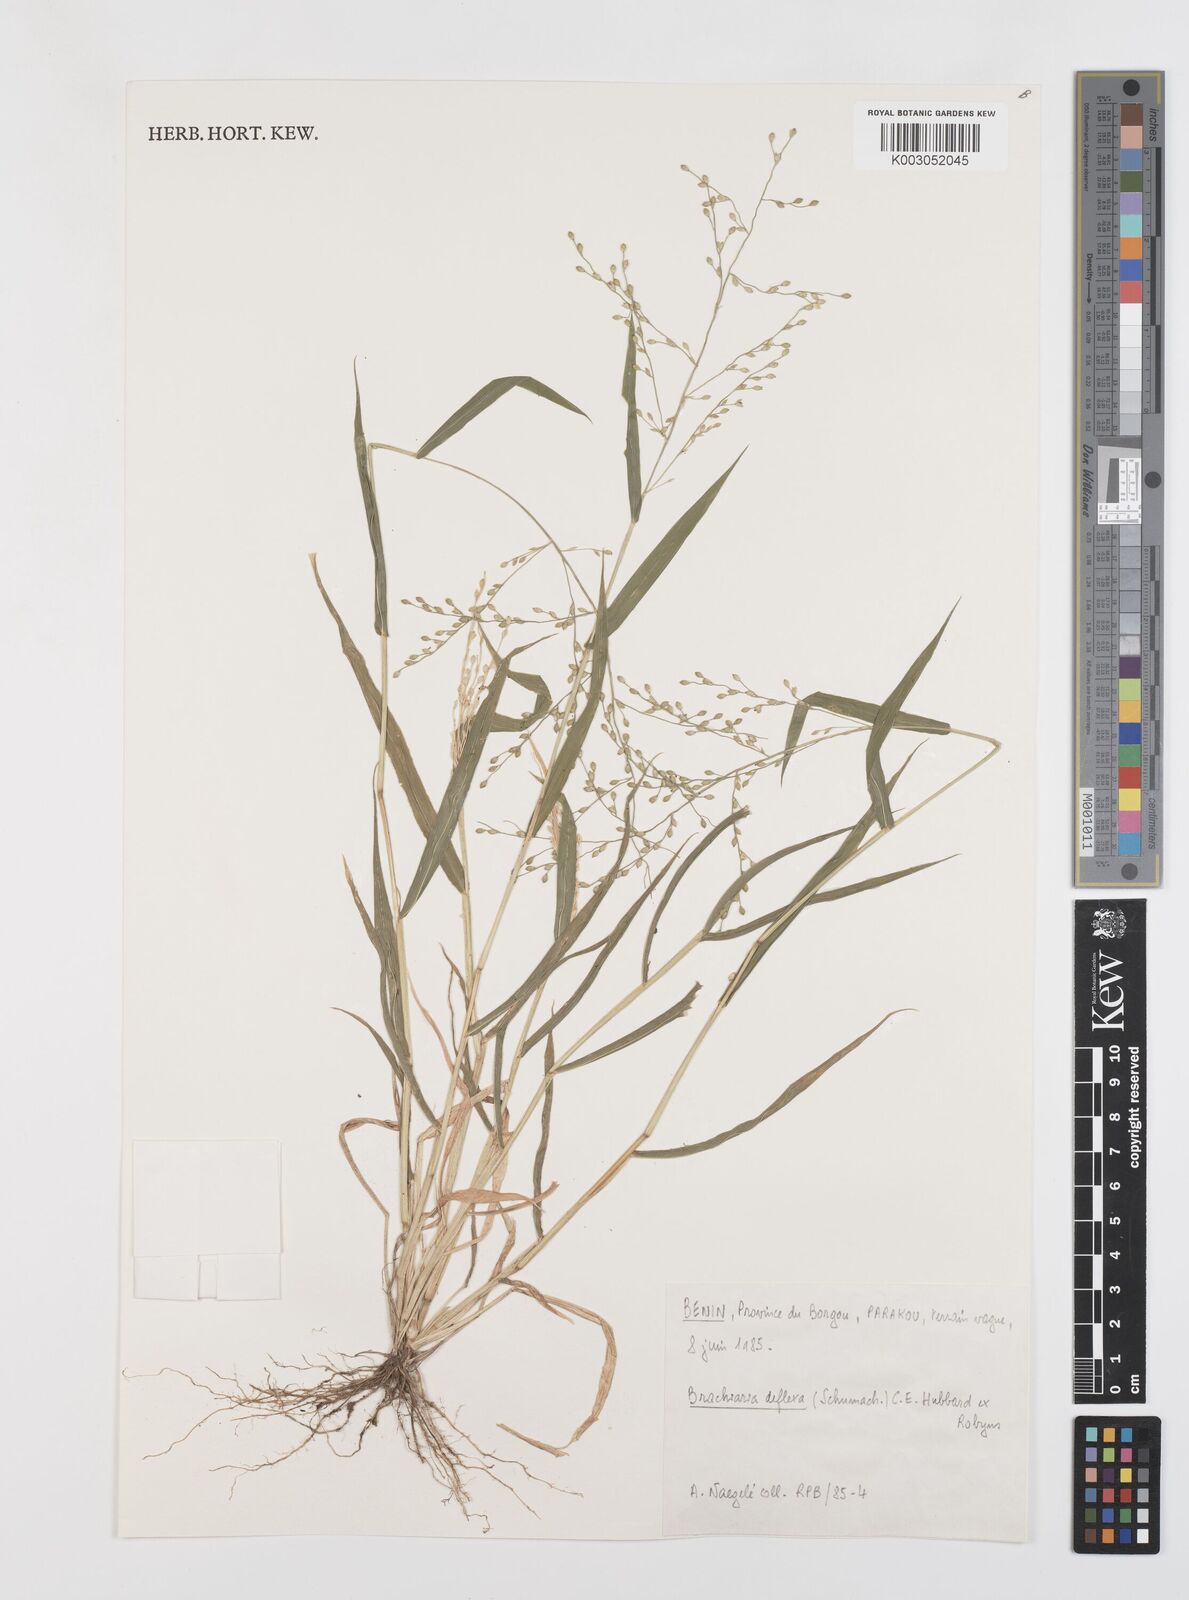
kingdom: Plantae
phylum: Tracheophyta
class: Liliopsida
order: Poales
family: Poaceae
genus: Urochloa
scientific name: Urochloa deflexa
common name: Guinea millet
